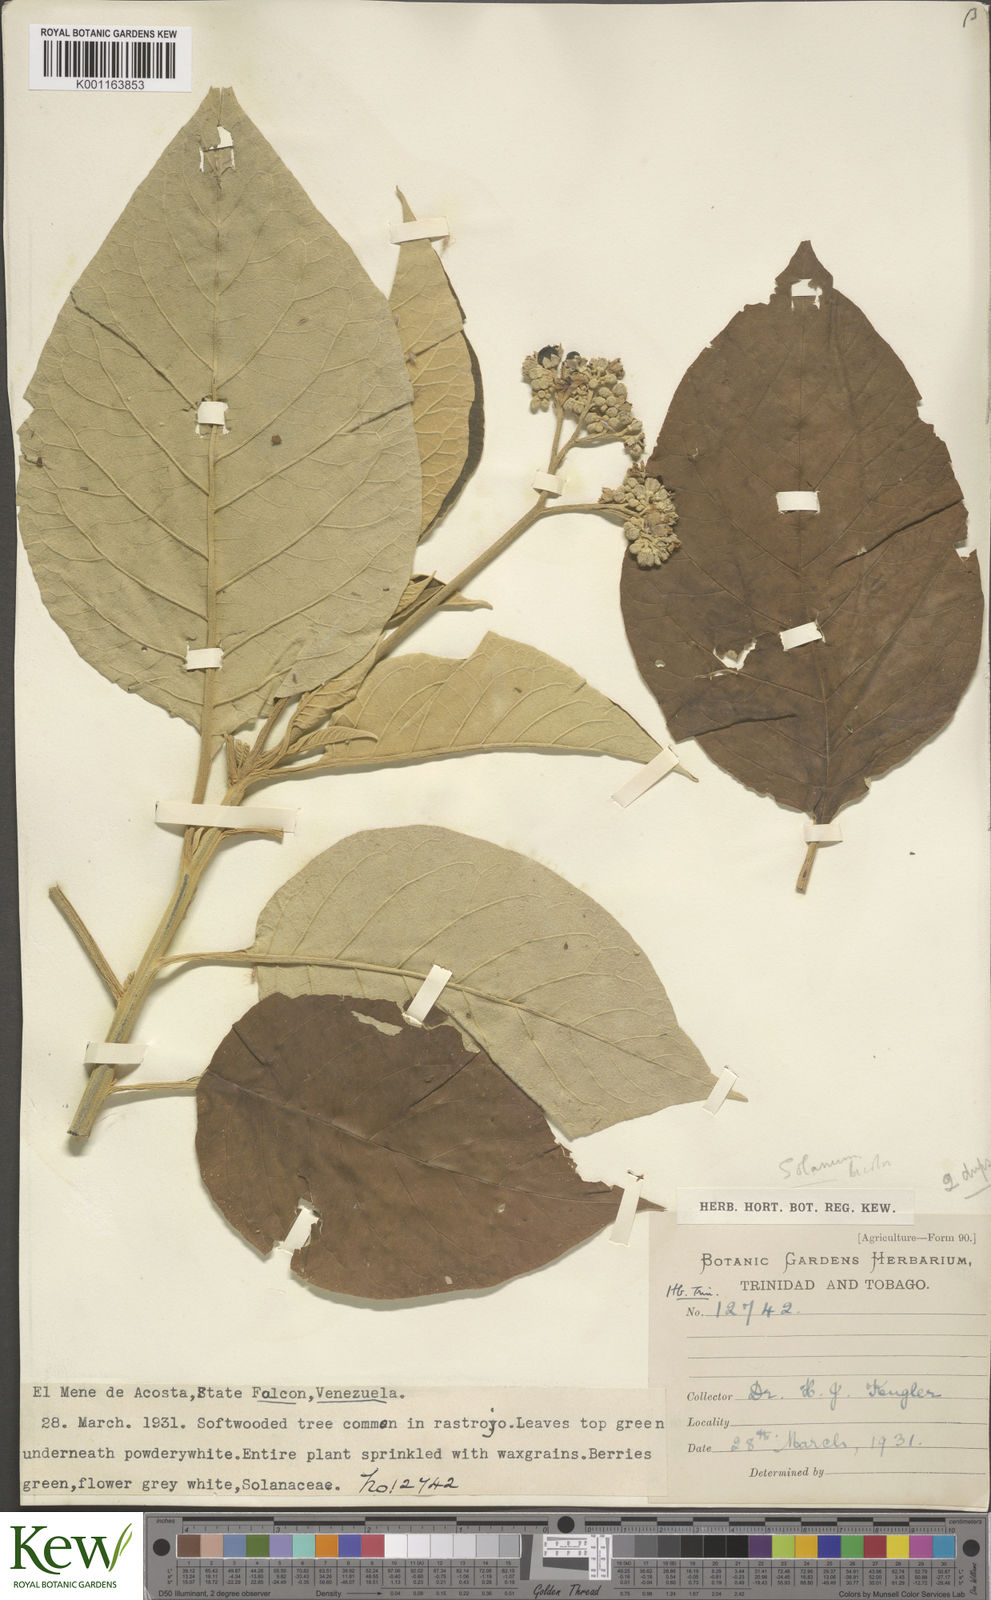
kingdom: Plantae
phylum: Tracheophyta
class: Magnoliopsida
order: Solanales
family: Solanaceae
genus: Solanum
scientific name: Solanum erianthum
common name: Tobacco-tree
